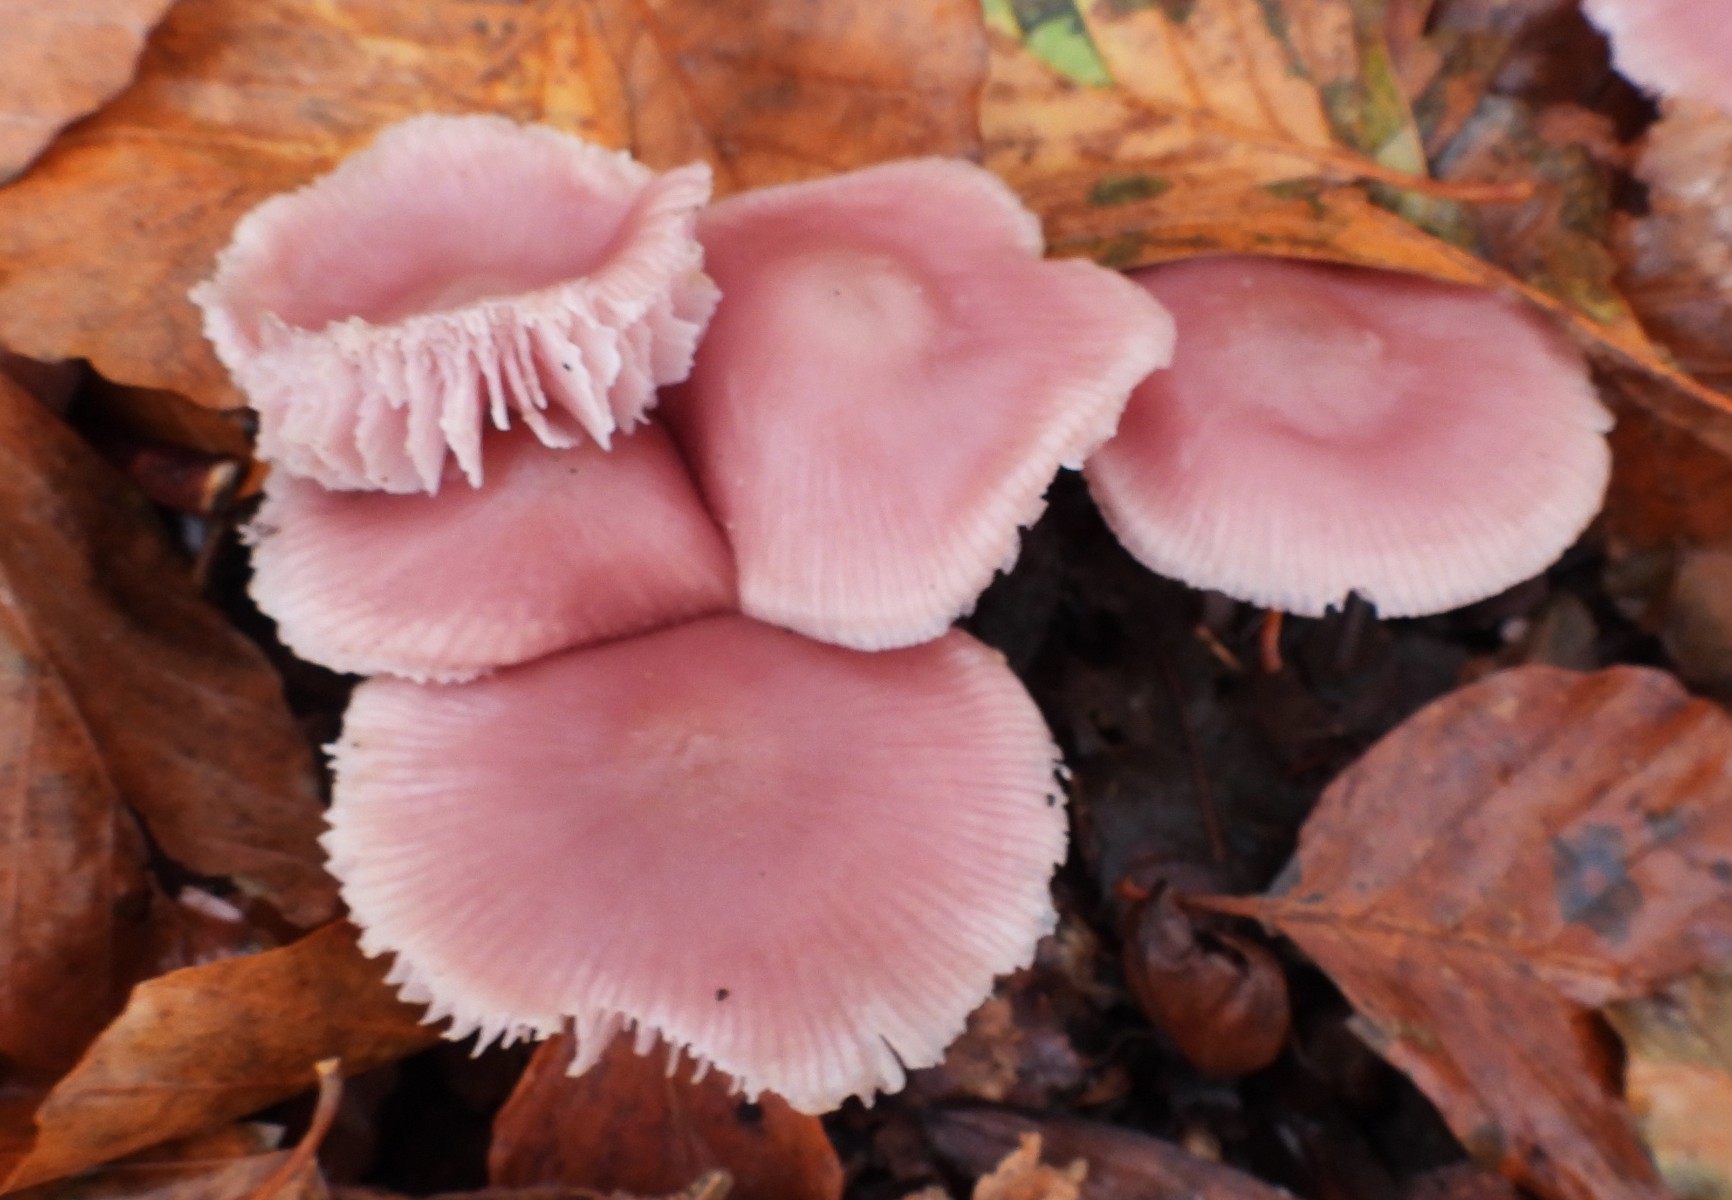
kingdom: Fungi
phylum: Basidiomycota
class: Agaricomycetes
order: Agaricales
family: Mycenaceae
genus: Mycena
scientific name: Mycena rosea
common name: rosa huesvamp
